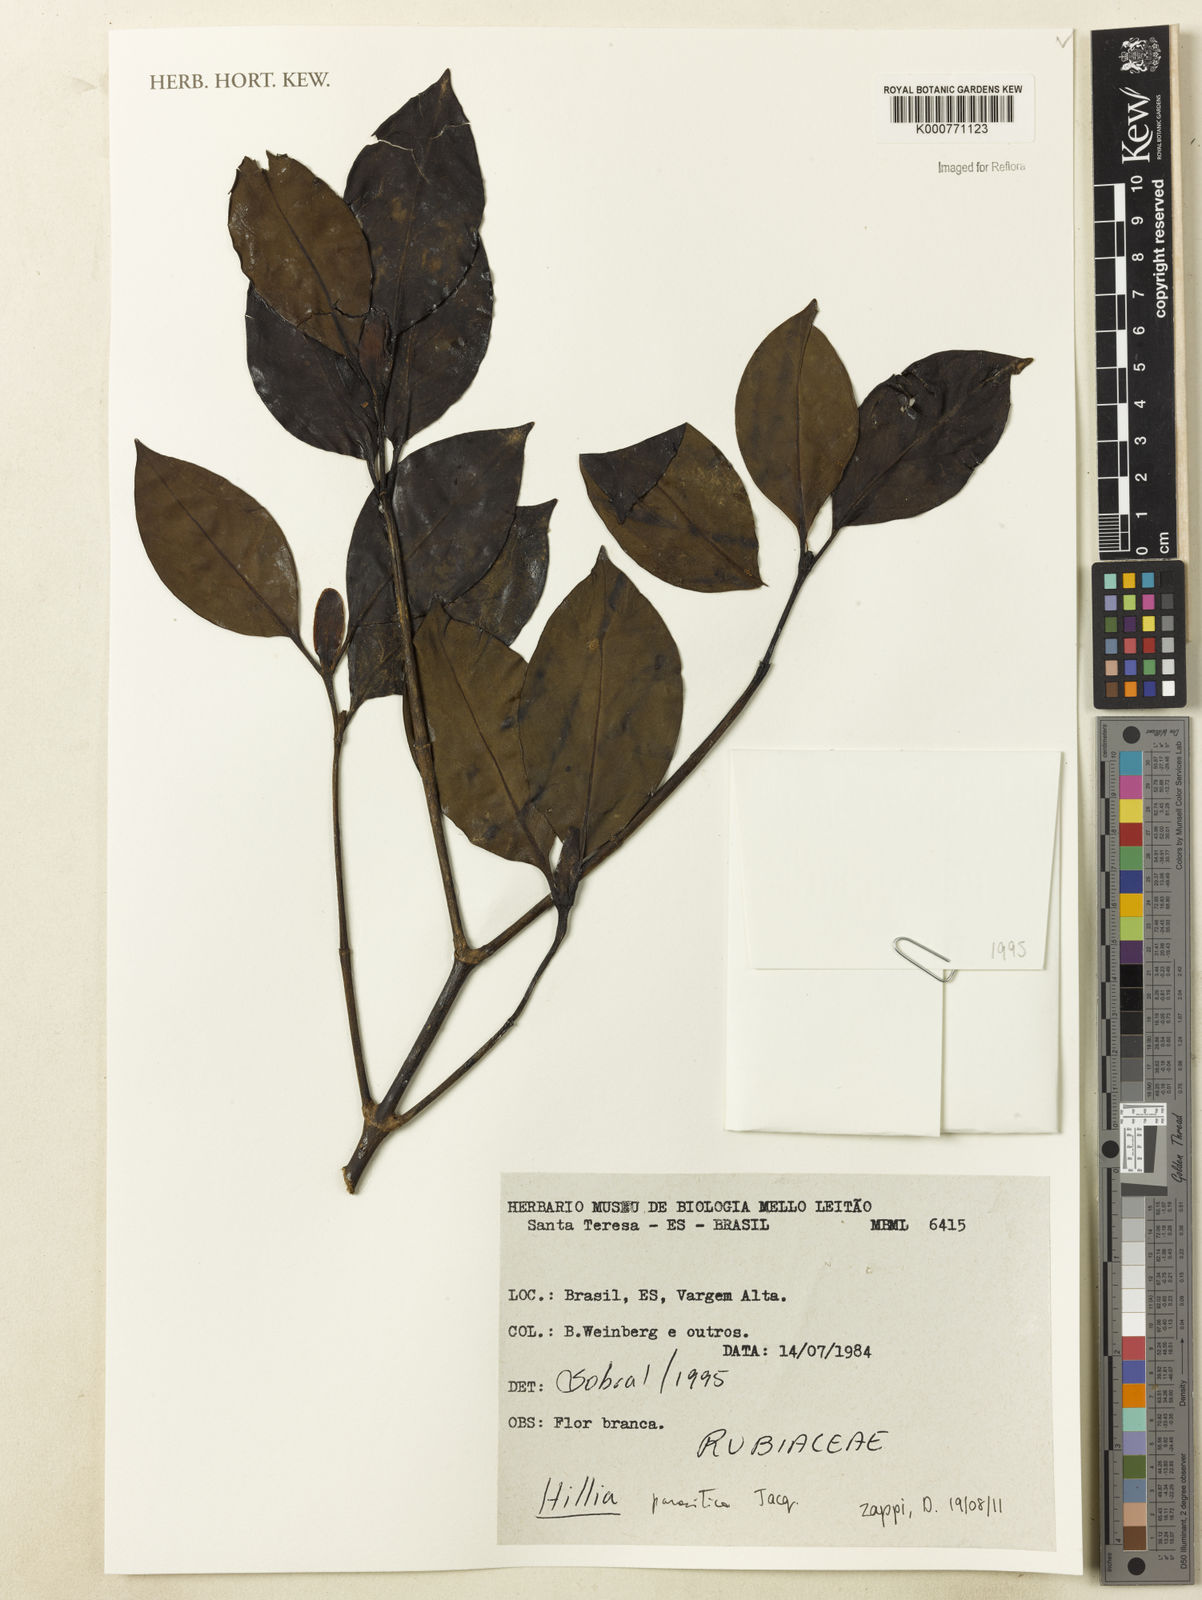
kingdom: Plantae
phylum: Tracheophyta
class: Magnoliopsida
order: Gentianales
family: Rubiaceae
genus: Hillia
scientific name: Hillia parasitica
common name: Morning star
